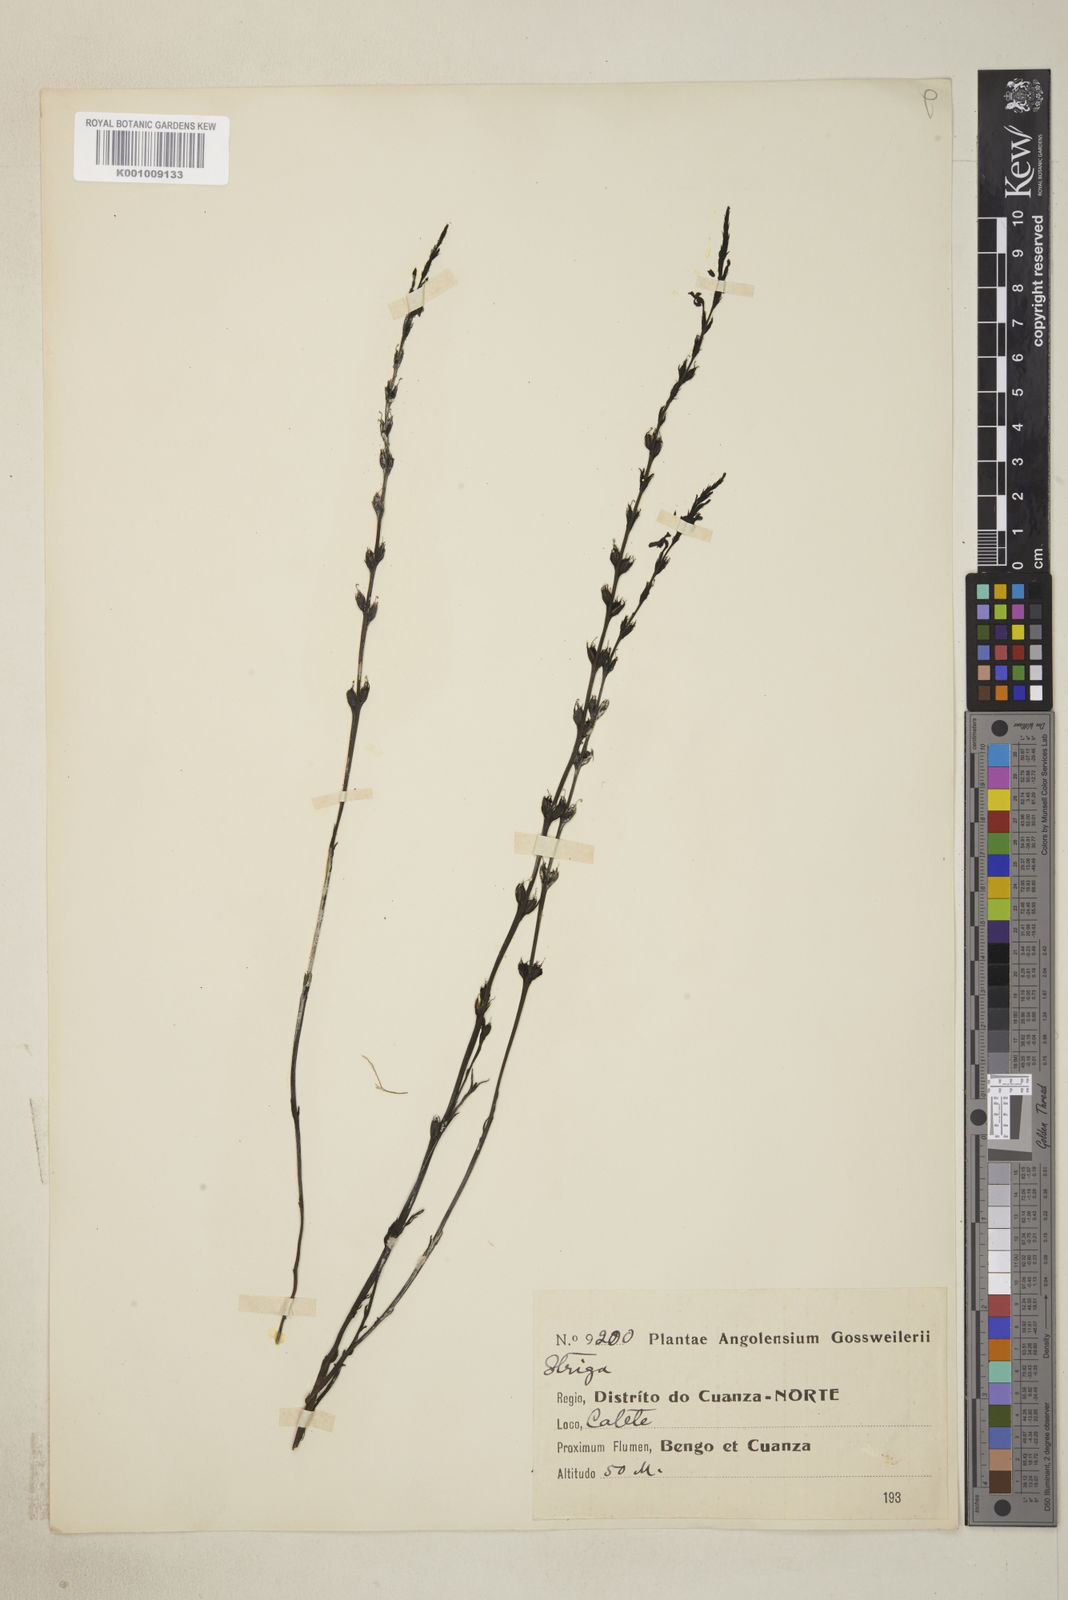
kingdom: Plantae
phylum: Tracheophyta
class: Magnoliopsida
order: Lamiales
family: Orobanchaceae
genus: Striga
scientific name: Striga gesnerioides
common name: Cowpea witchweed
